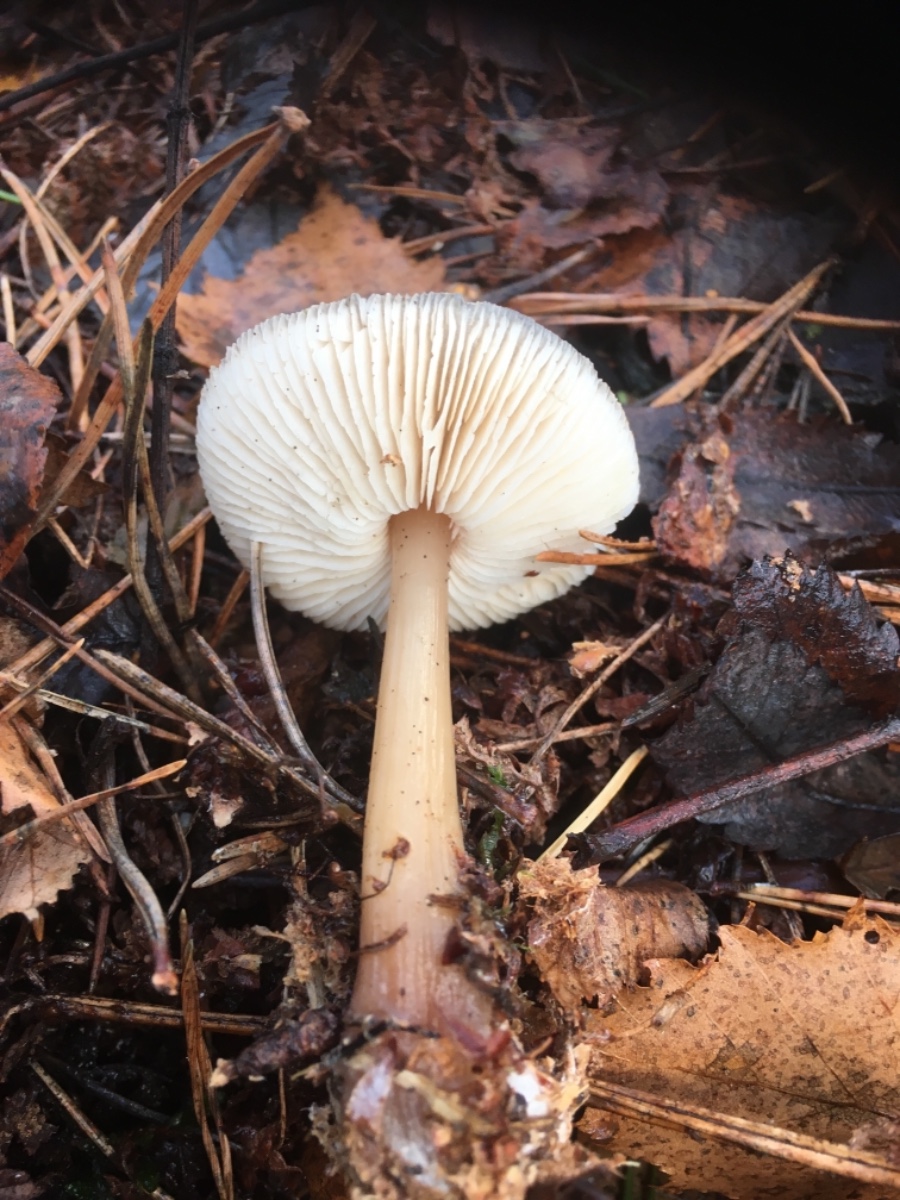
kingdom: Fungi
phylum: Basidiomycota
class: Agaricomycetes
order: Agaricales
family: Omphalotaceae
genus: Rhodocollybia
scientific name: Rhodocollybia asema
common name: horngrå fladhat
